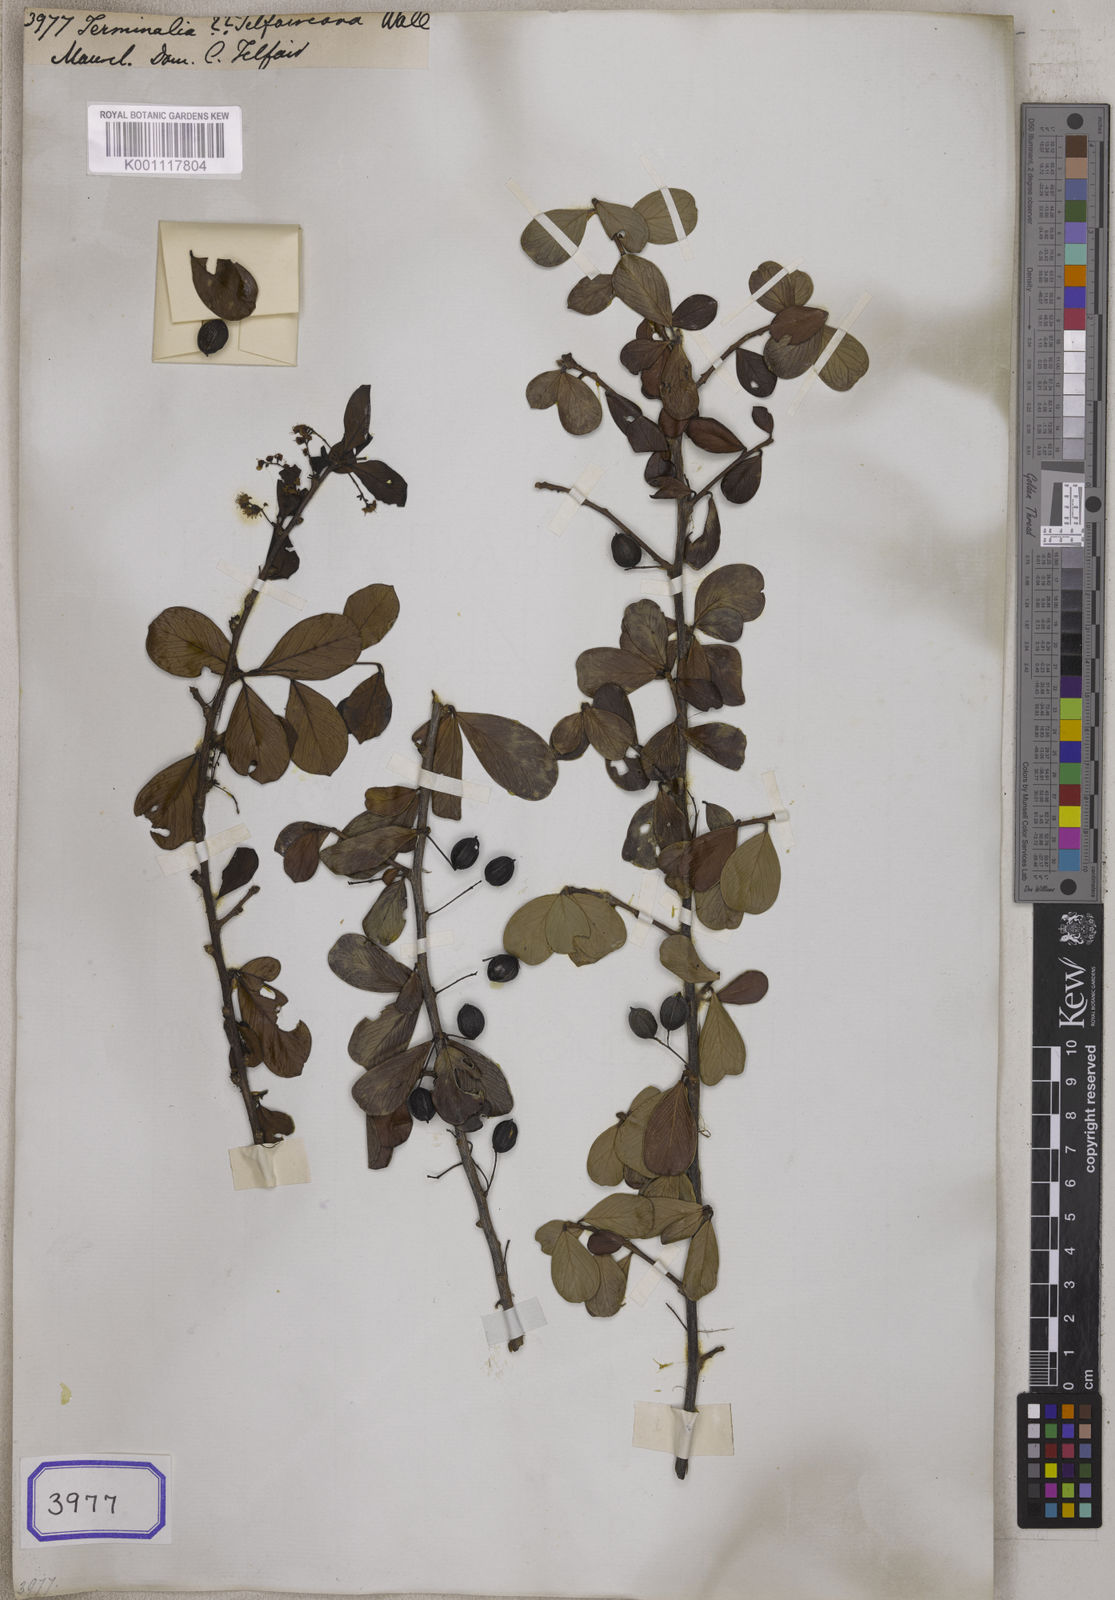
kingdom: Plantae
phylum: Tracheophyta
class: Magnoliopsida
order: Myrtales
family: Combretaceae
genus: Terminalia
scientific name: Terminalia telfaireana
